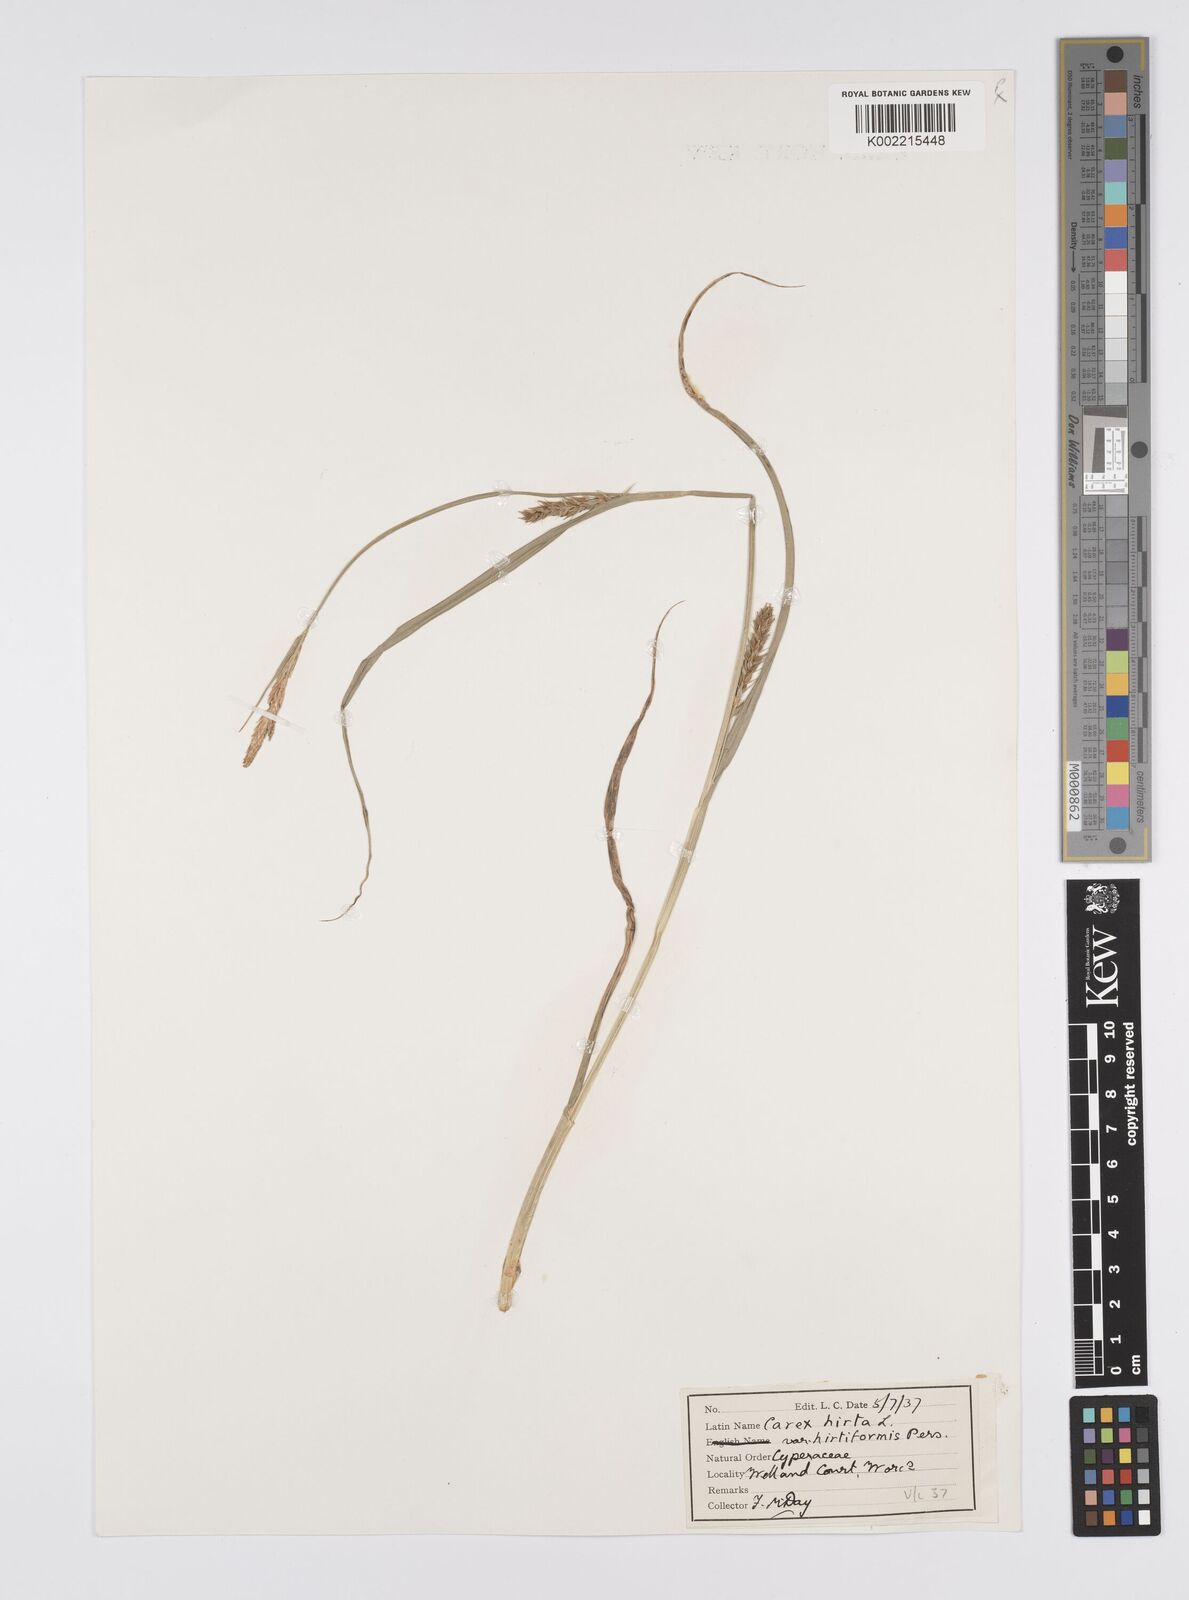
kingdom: Plantae
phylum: Tracheophyta
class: Liliopsida
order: Poales
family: Cyperaceae
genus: Carex
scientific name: Carex hirta
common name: Hairy sedge
